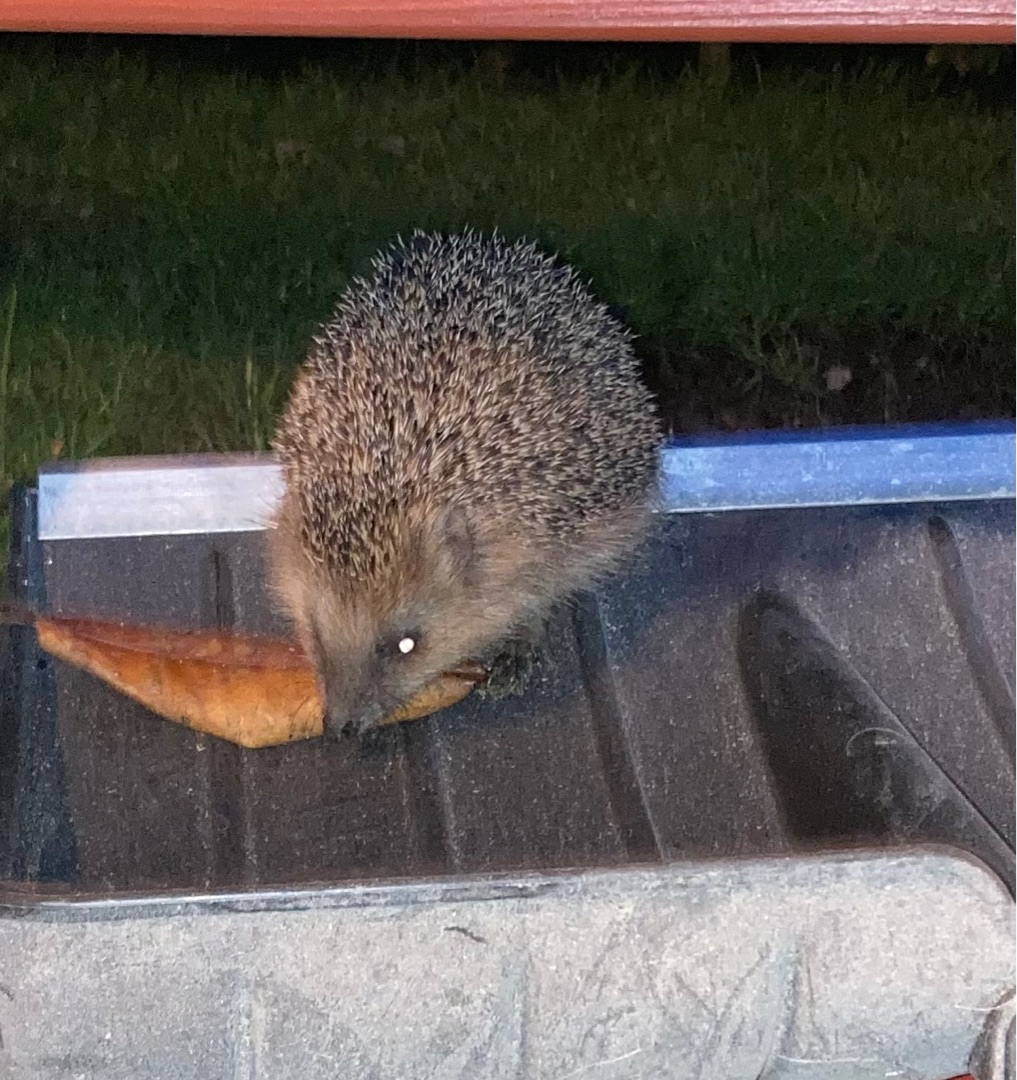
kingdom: Animalia
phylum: Chordata
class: Mammalia
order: Erinaceomorpha
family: Erinaceidae
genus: Erinaceus
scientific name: Erinaceus europaeus
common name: Pindsvin
